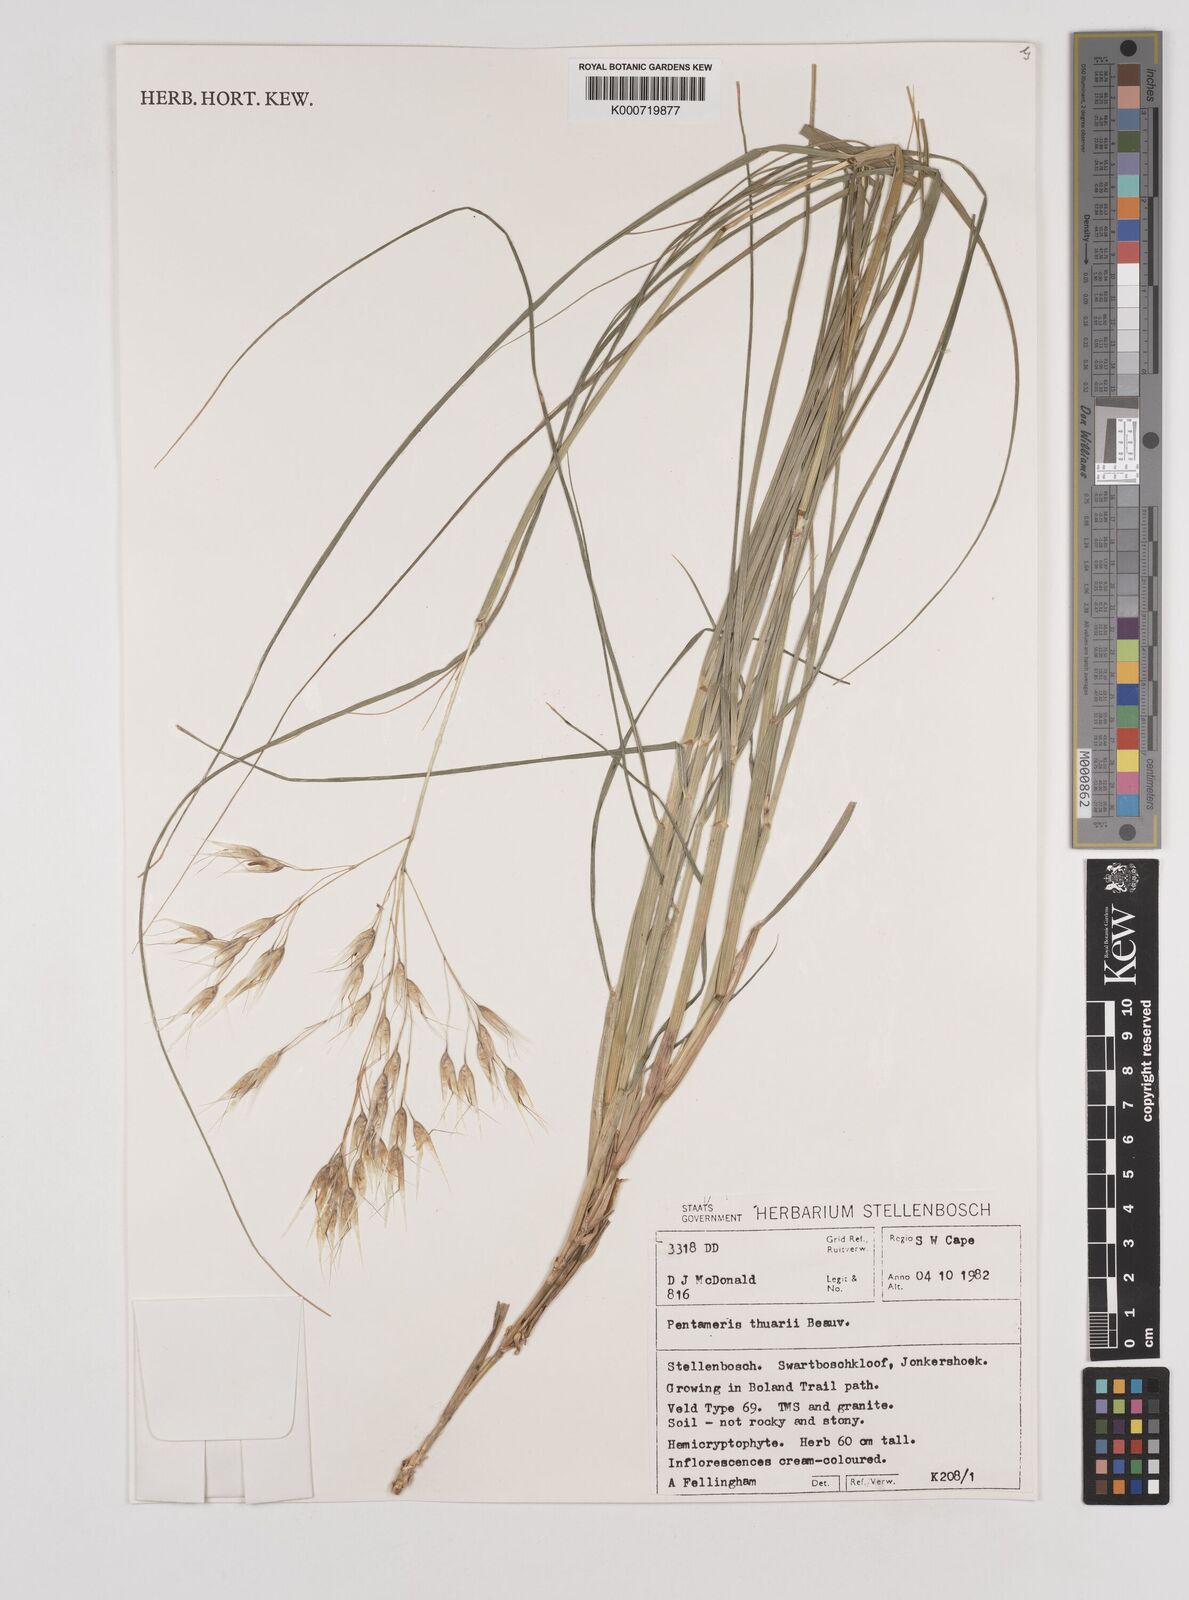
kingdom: Plantae
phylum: Tracheophyta
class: Liliopsida
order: Poales
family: Poaceae
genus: Pentameris
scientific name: Pentameris thuarii
